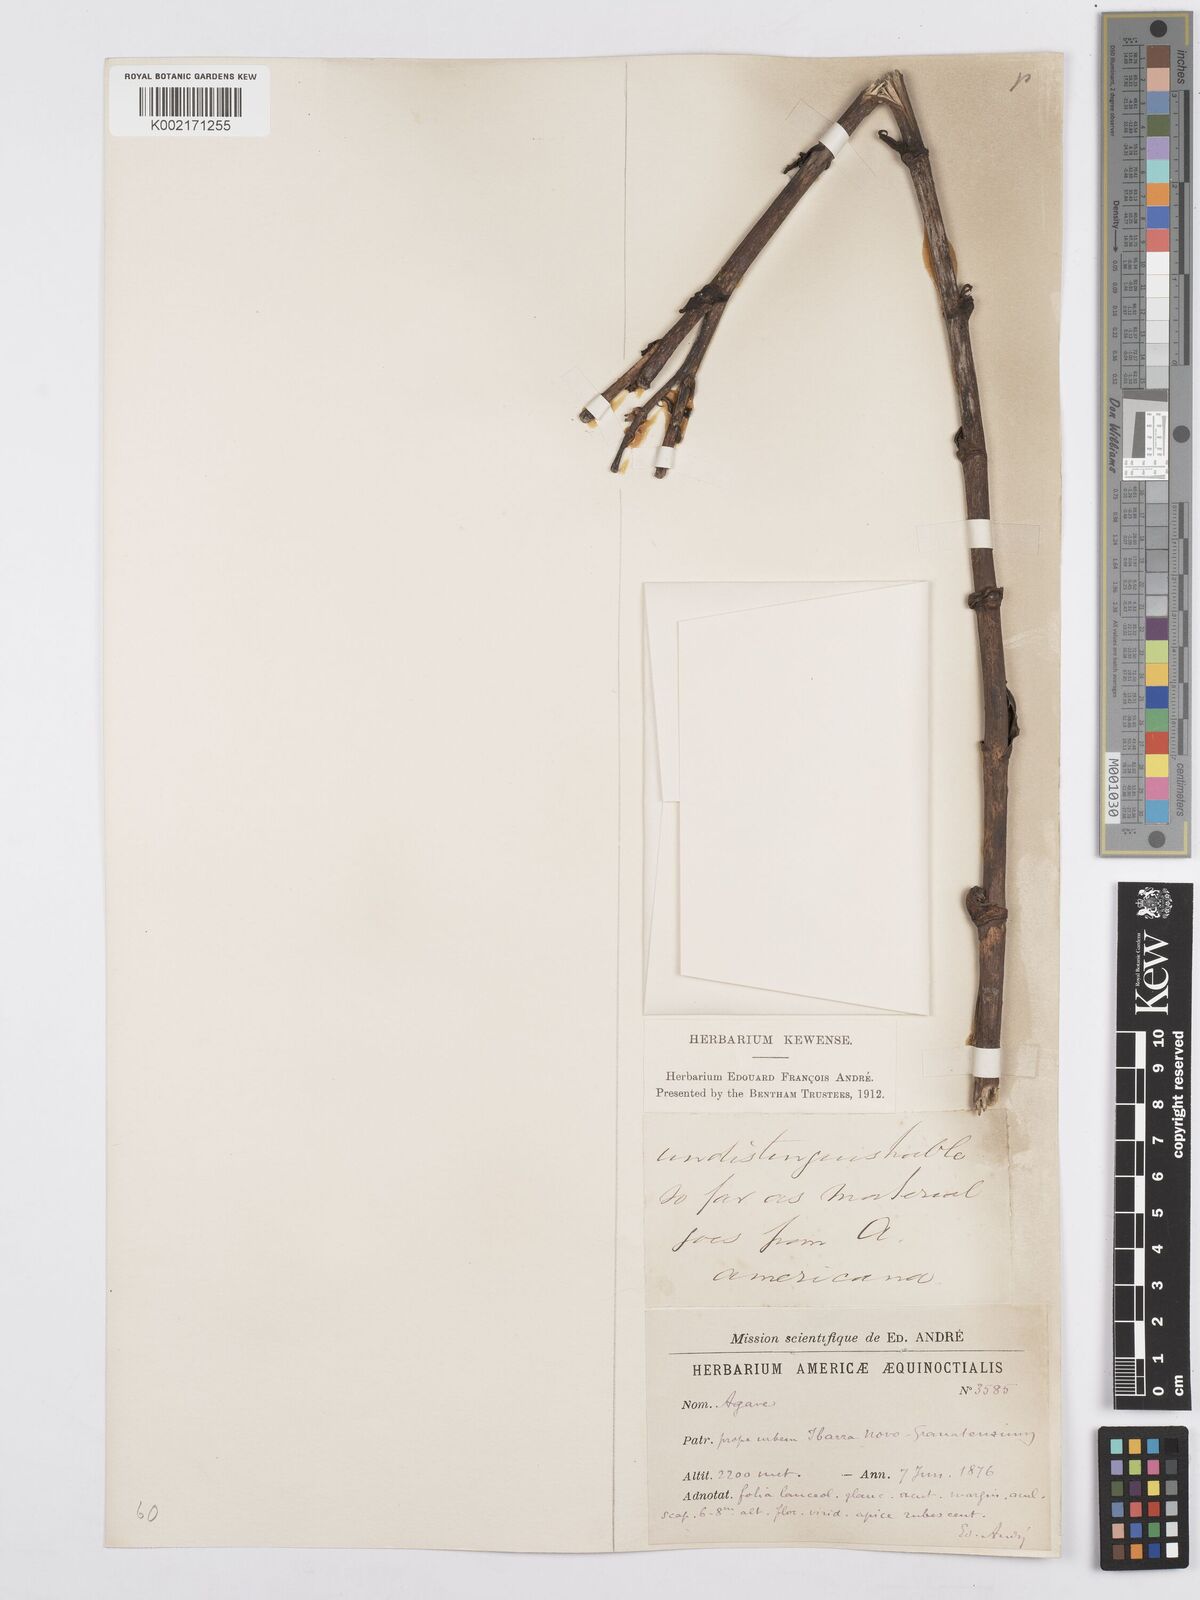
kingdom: Plantae
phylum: Tracheophyta
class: Liliopsida
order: Asparagales
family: Asparagaceae
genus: Agave
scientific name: Agave
